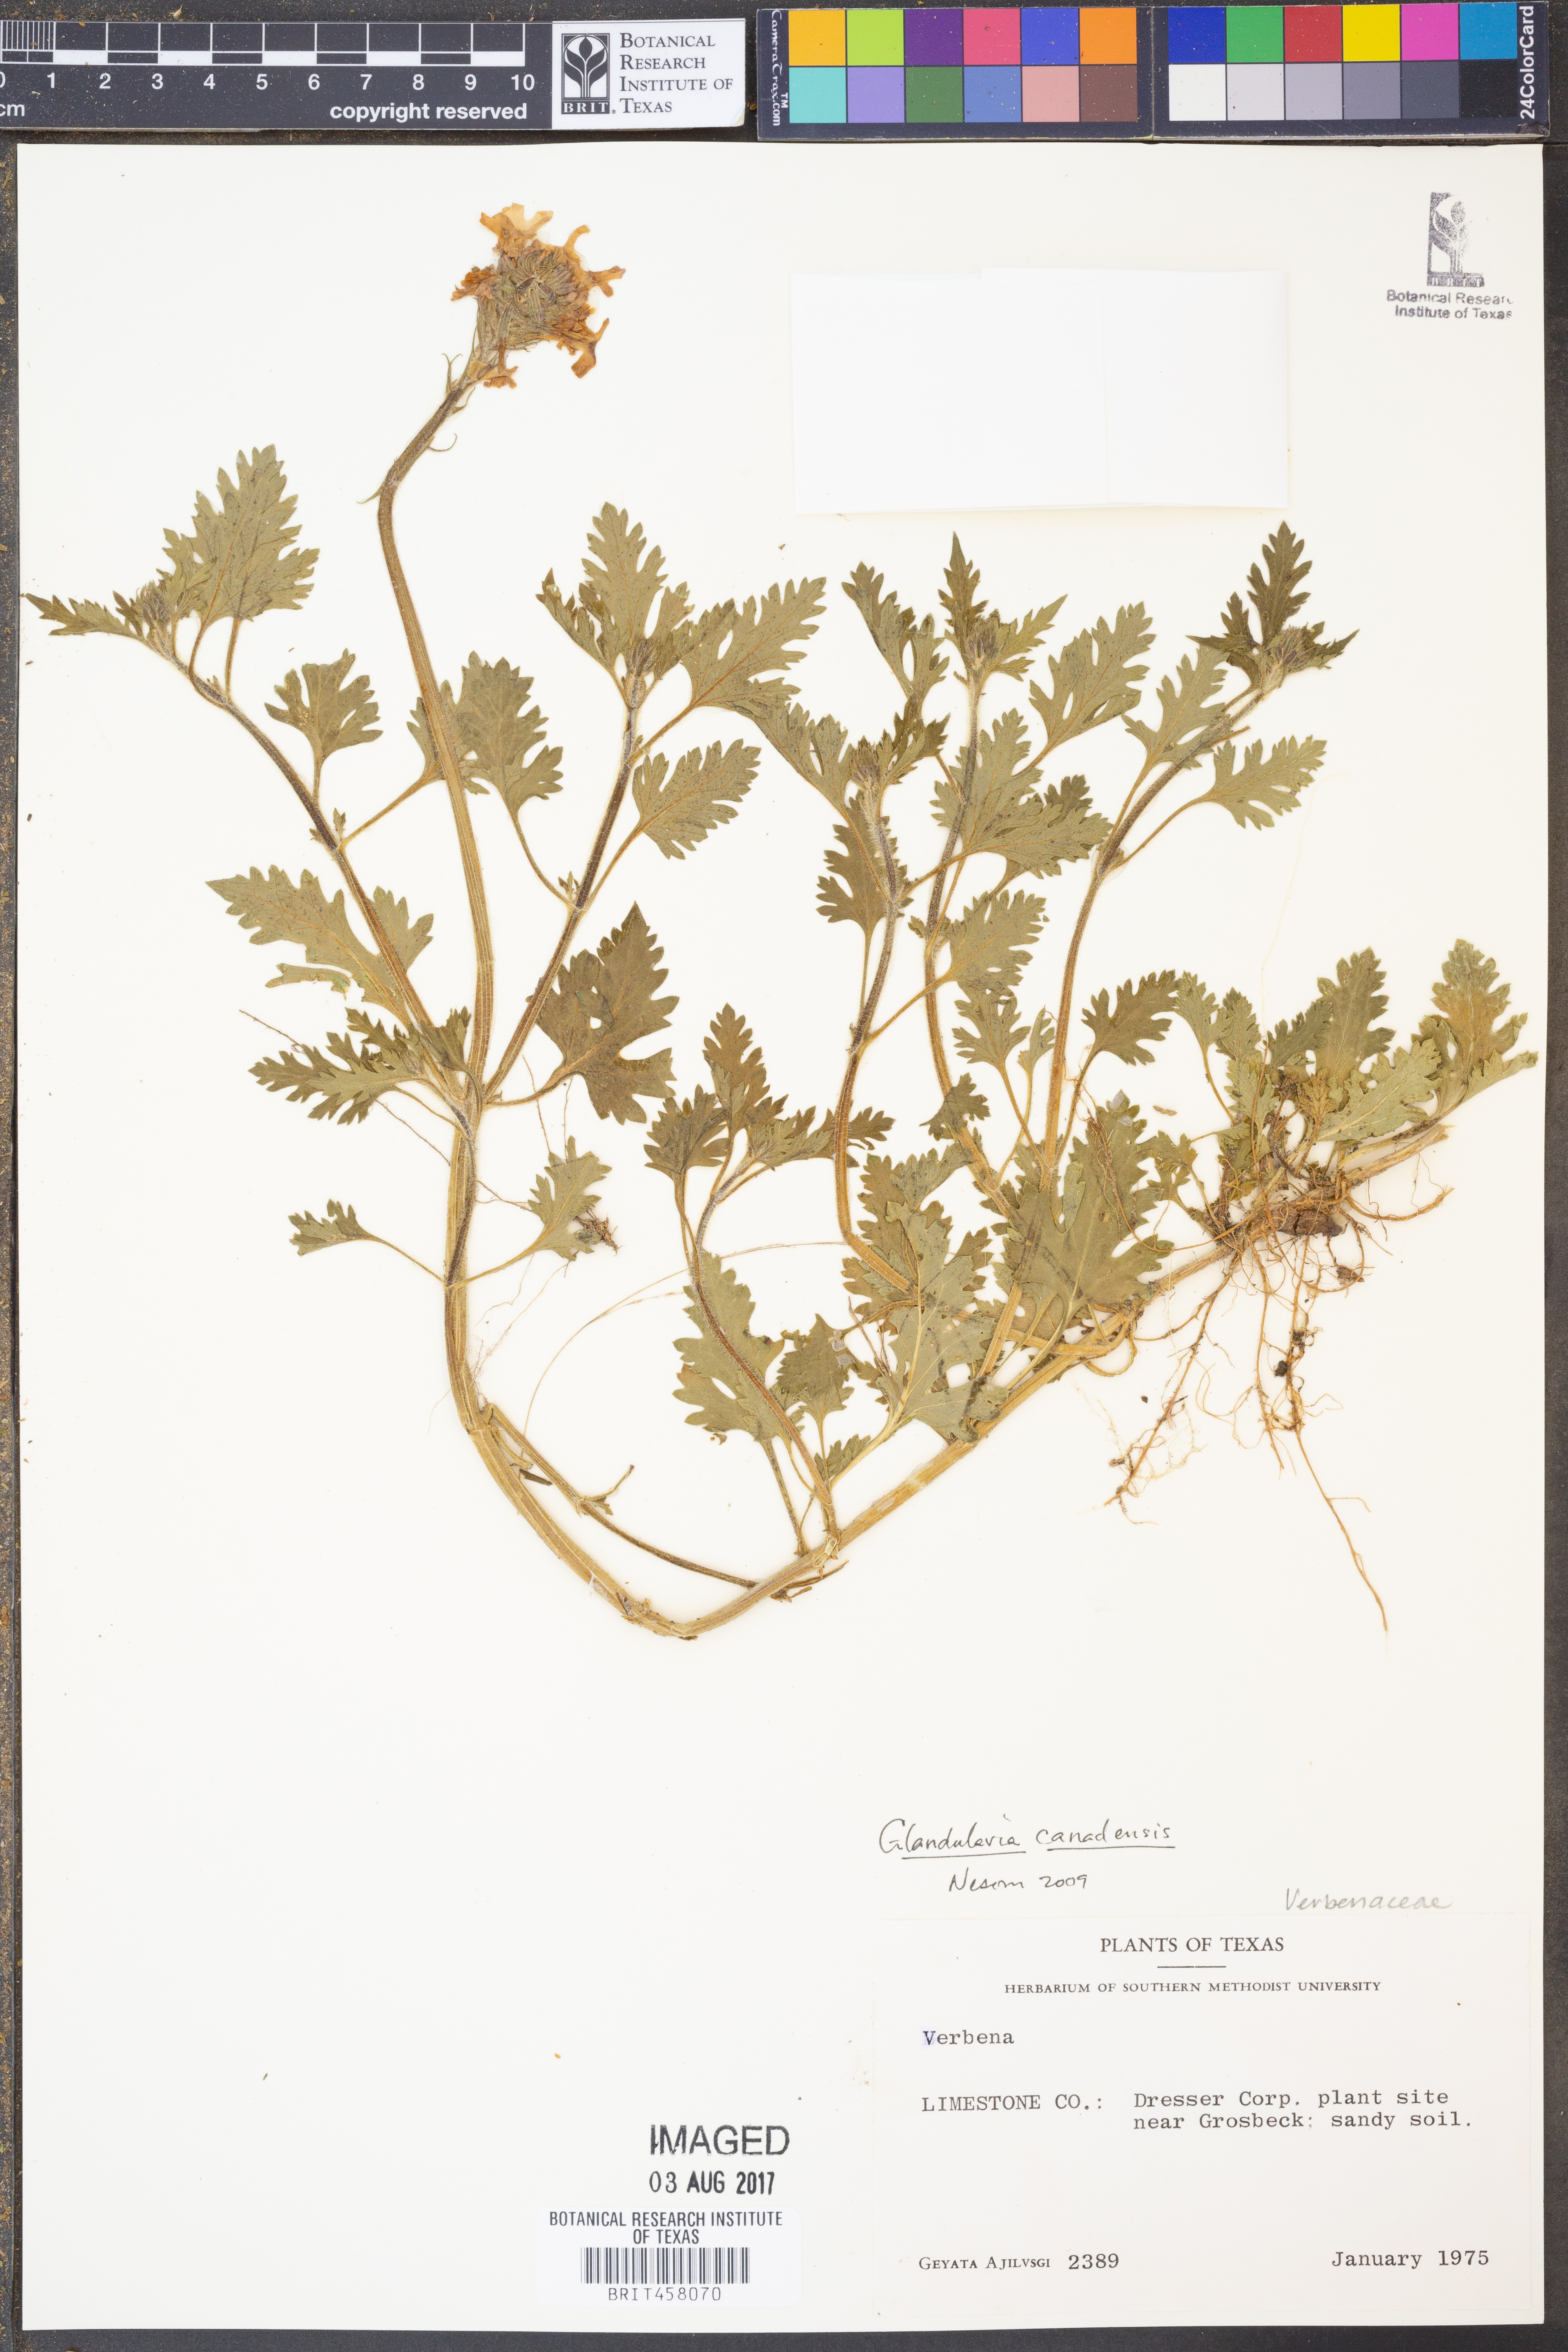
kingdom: Plantae
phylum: Tracheophyta
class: Magnoliopsida
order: Lamiales
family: Verbenaceae
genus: Verbena
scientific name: Verbena canadensis
